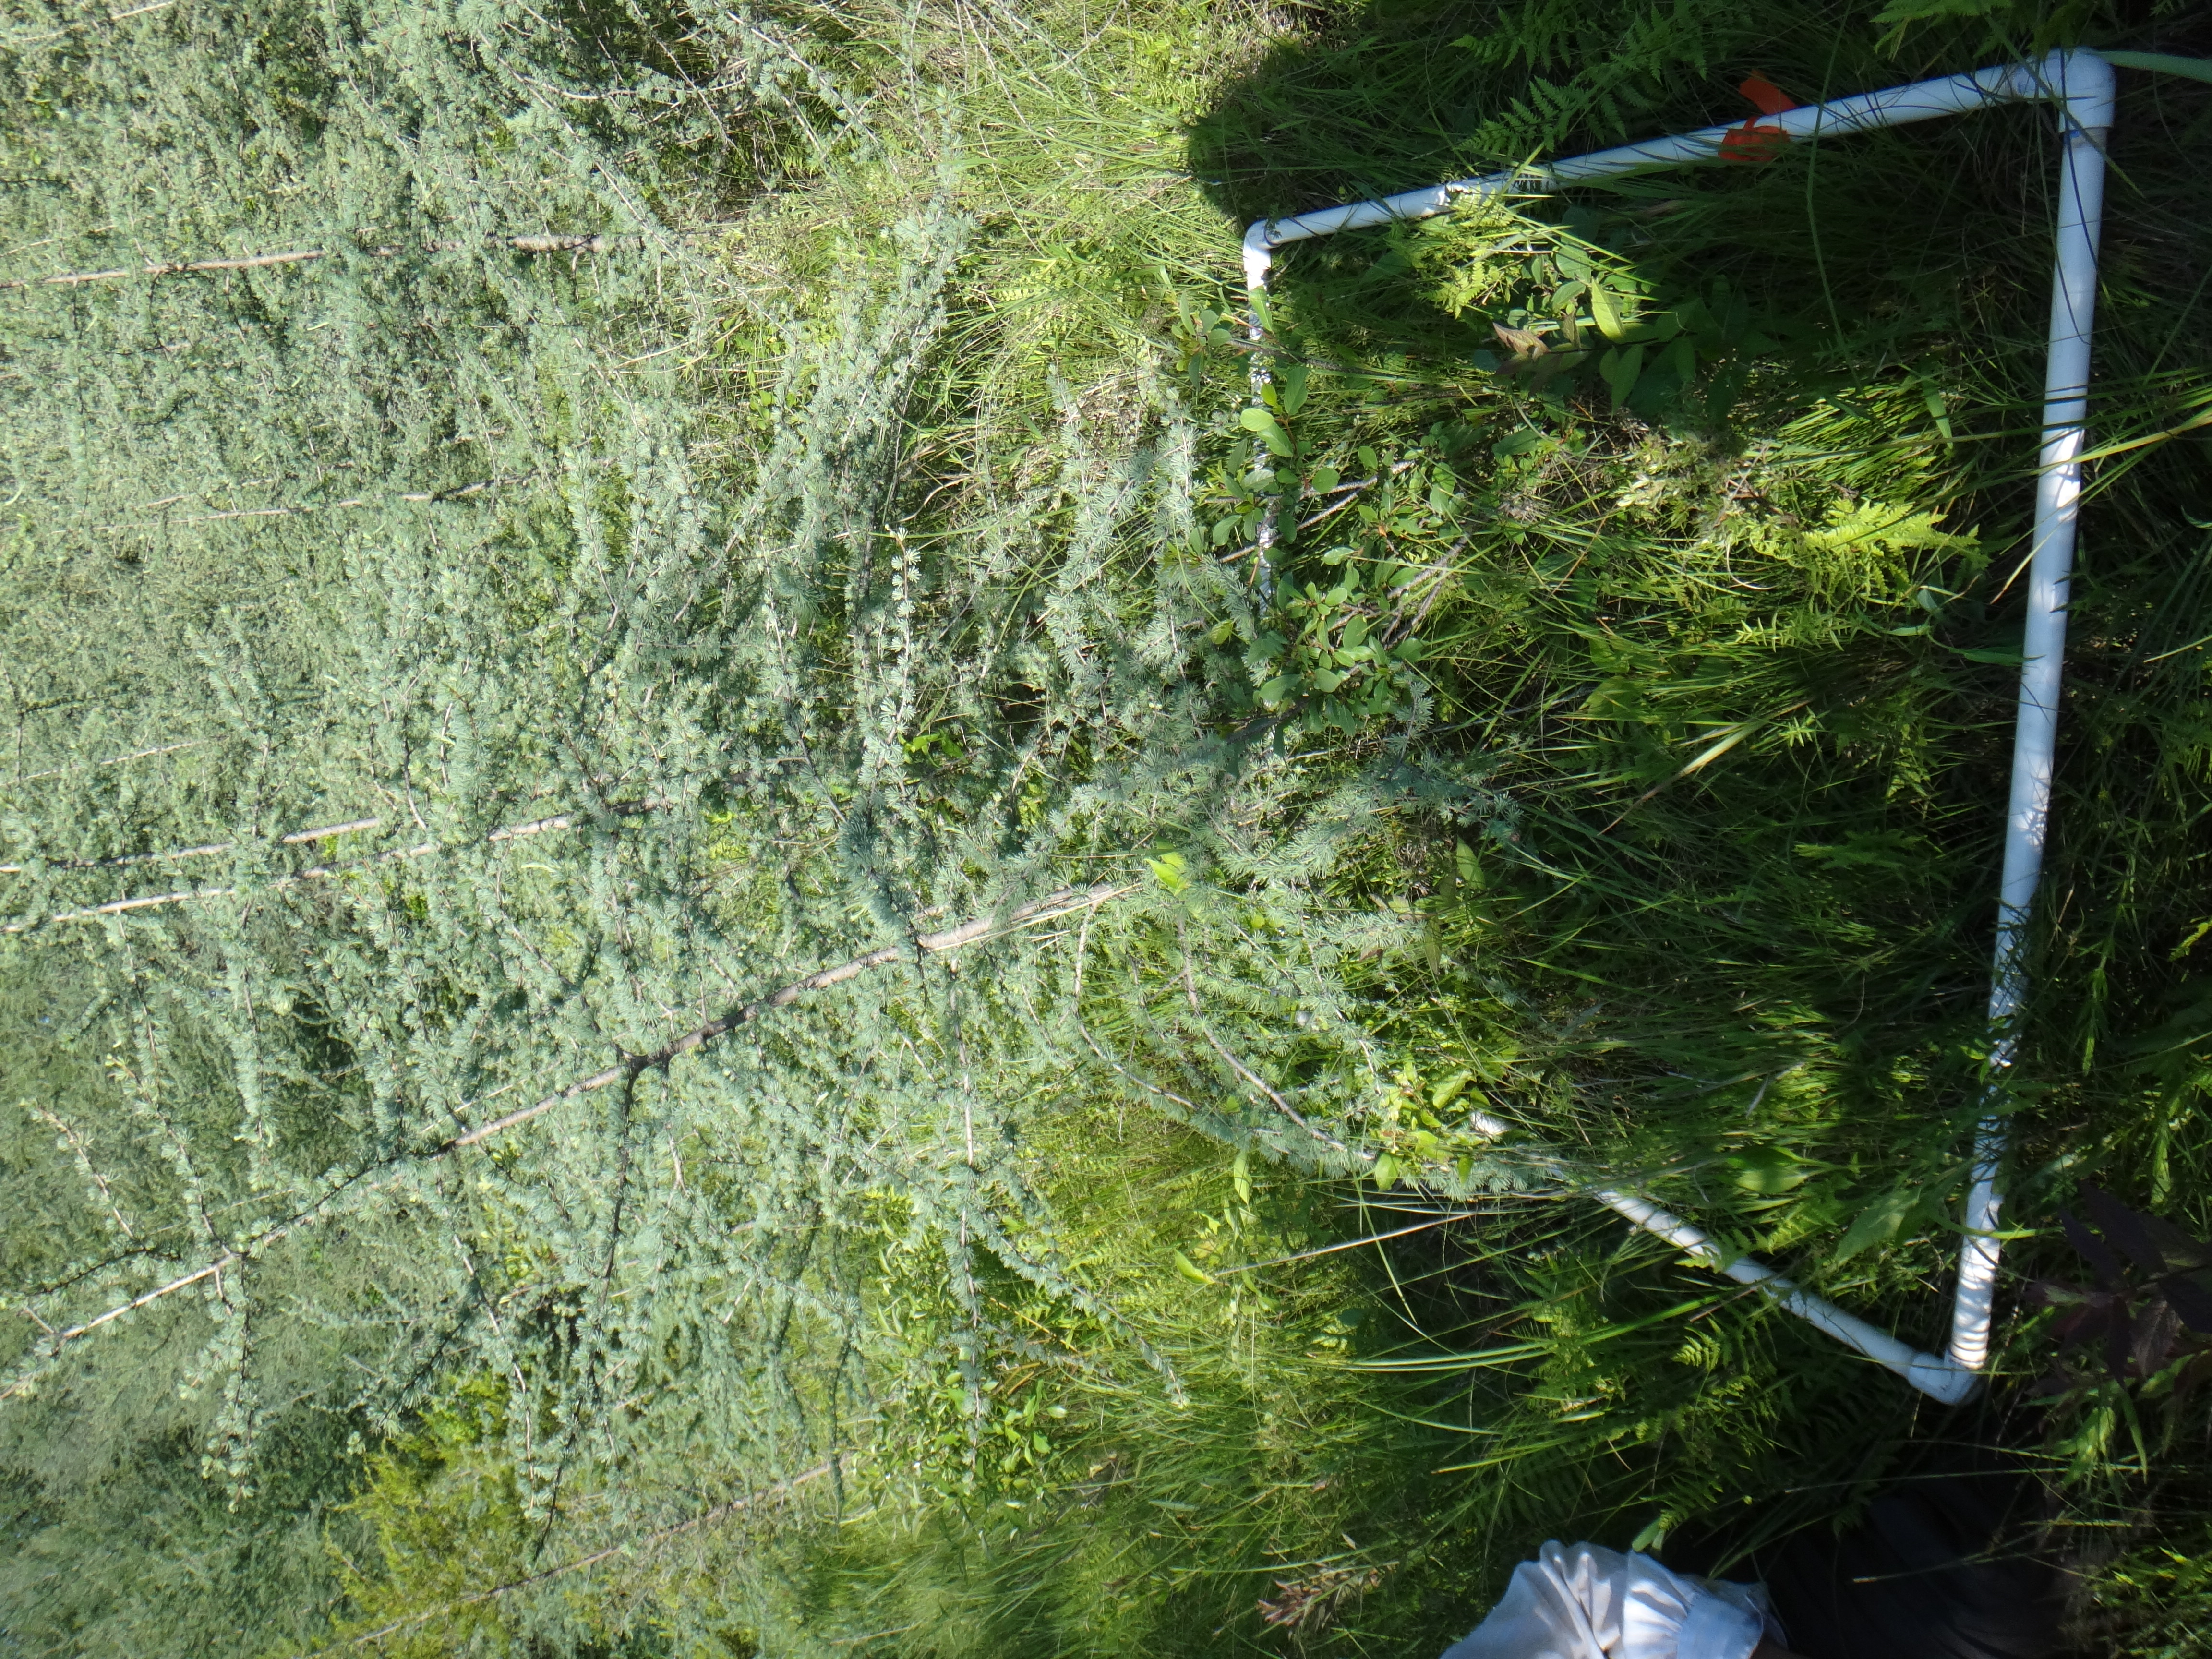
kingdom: Plantae
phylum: Tracheophyta
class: Liliopsida
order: Poales
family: Cyperaceae
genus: Carex
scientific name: Carex sterilis
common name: Dioecious sedge
